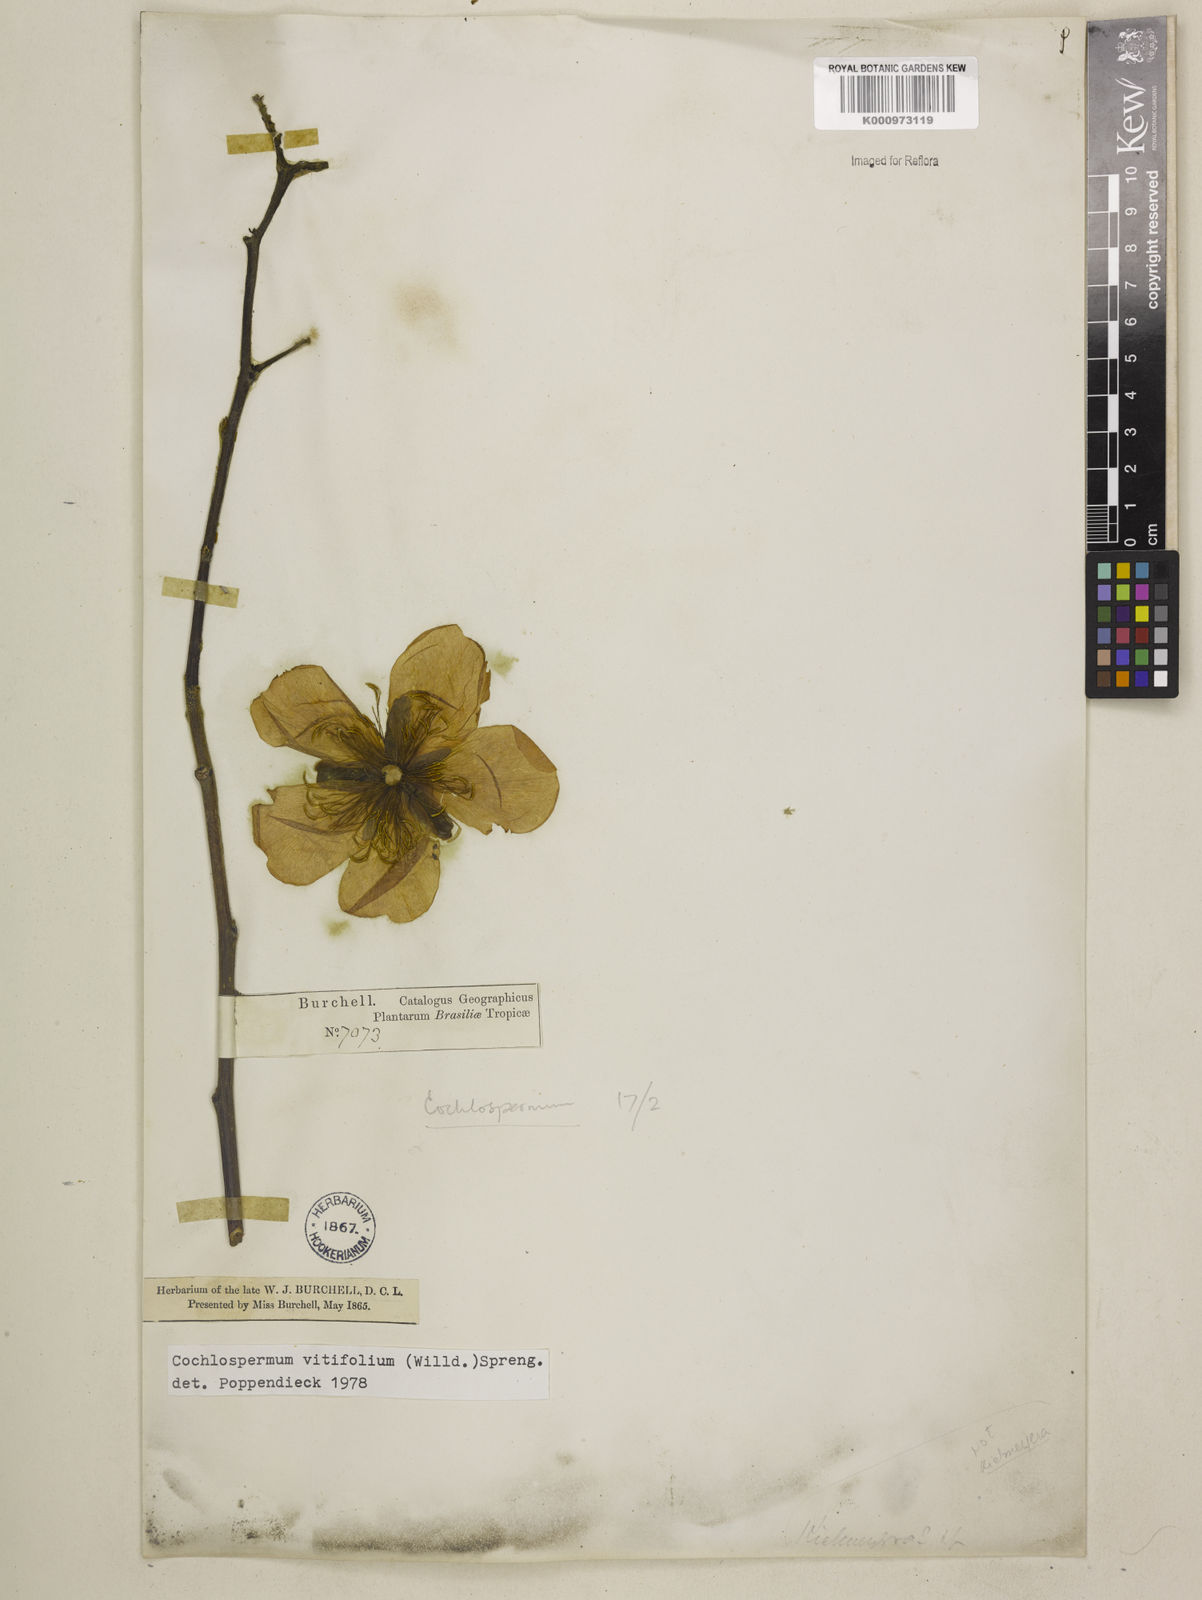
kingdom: Plantae
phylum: Tracheophyta
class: Magnoliopsida
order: Malvales
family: Cochlospermaceae
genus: Cochlospermum
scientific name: Cochlospermum regium
